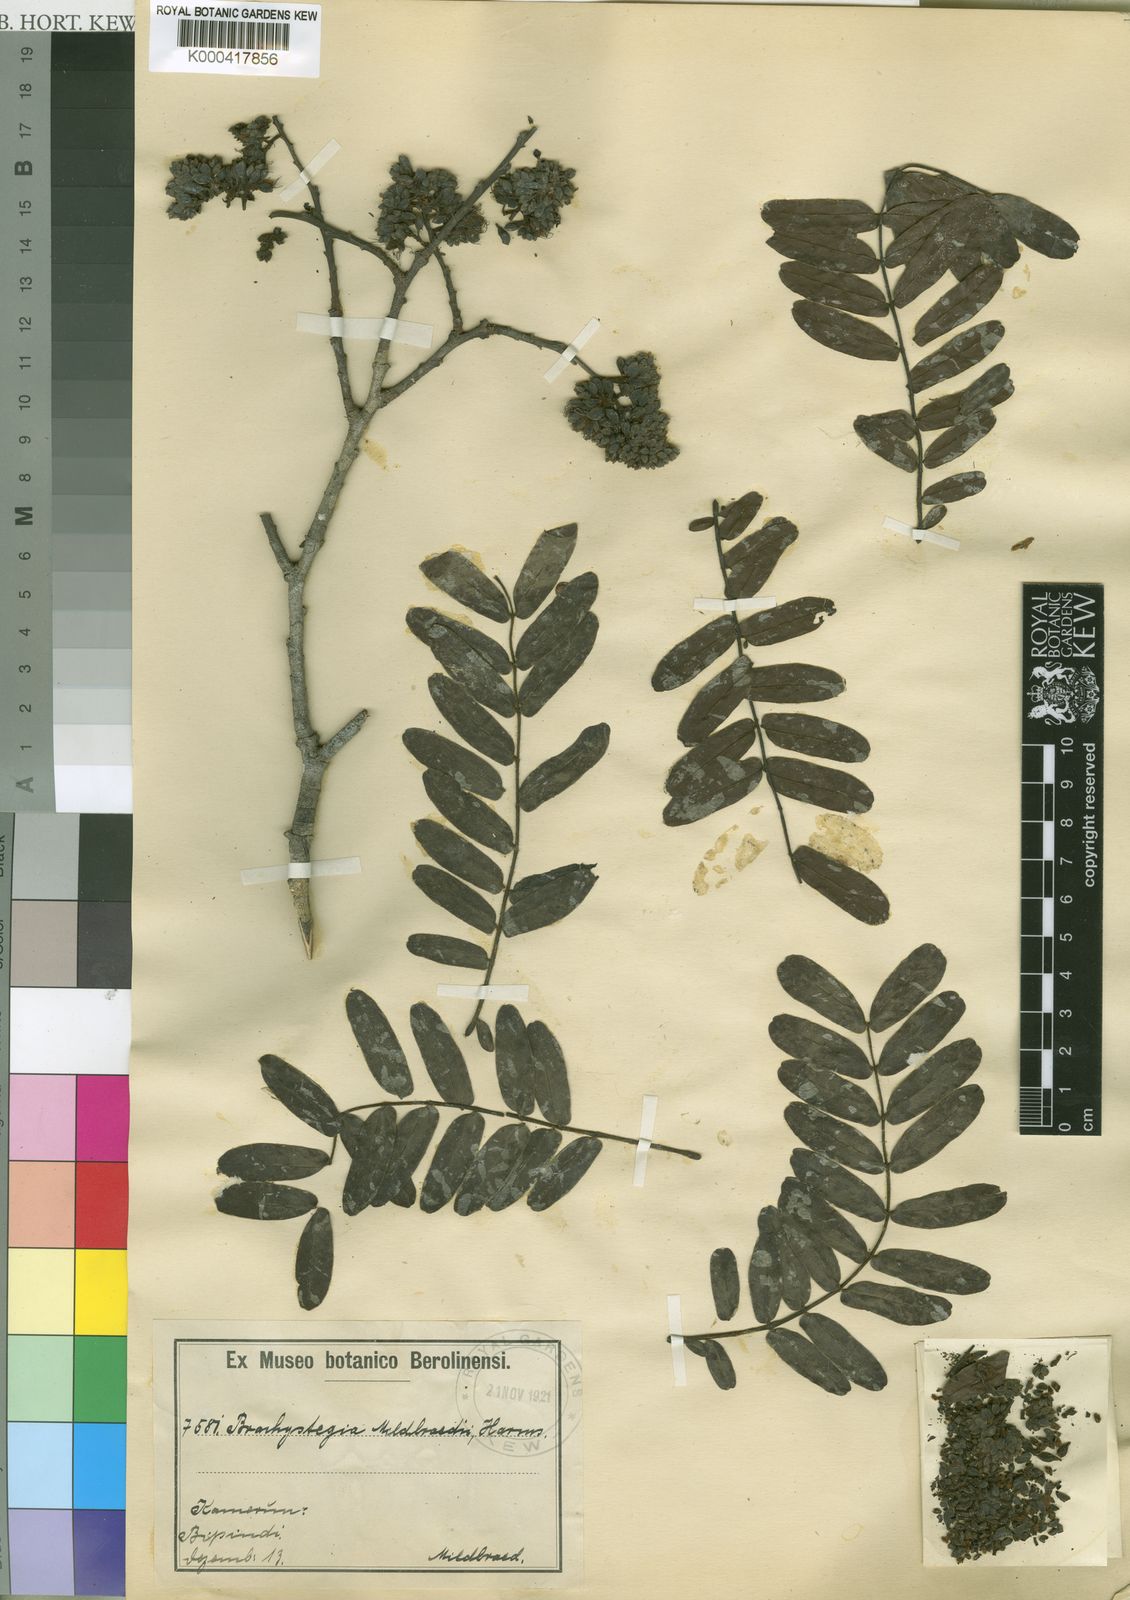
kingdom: Plantae
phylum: Tracheophyta
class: Magnoliopsida
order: Fabales
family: Fabaceae
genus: Brachystegia
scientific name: Brachystegia mildbraedii
